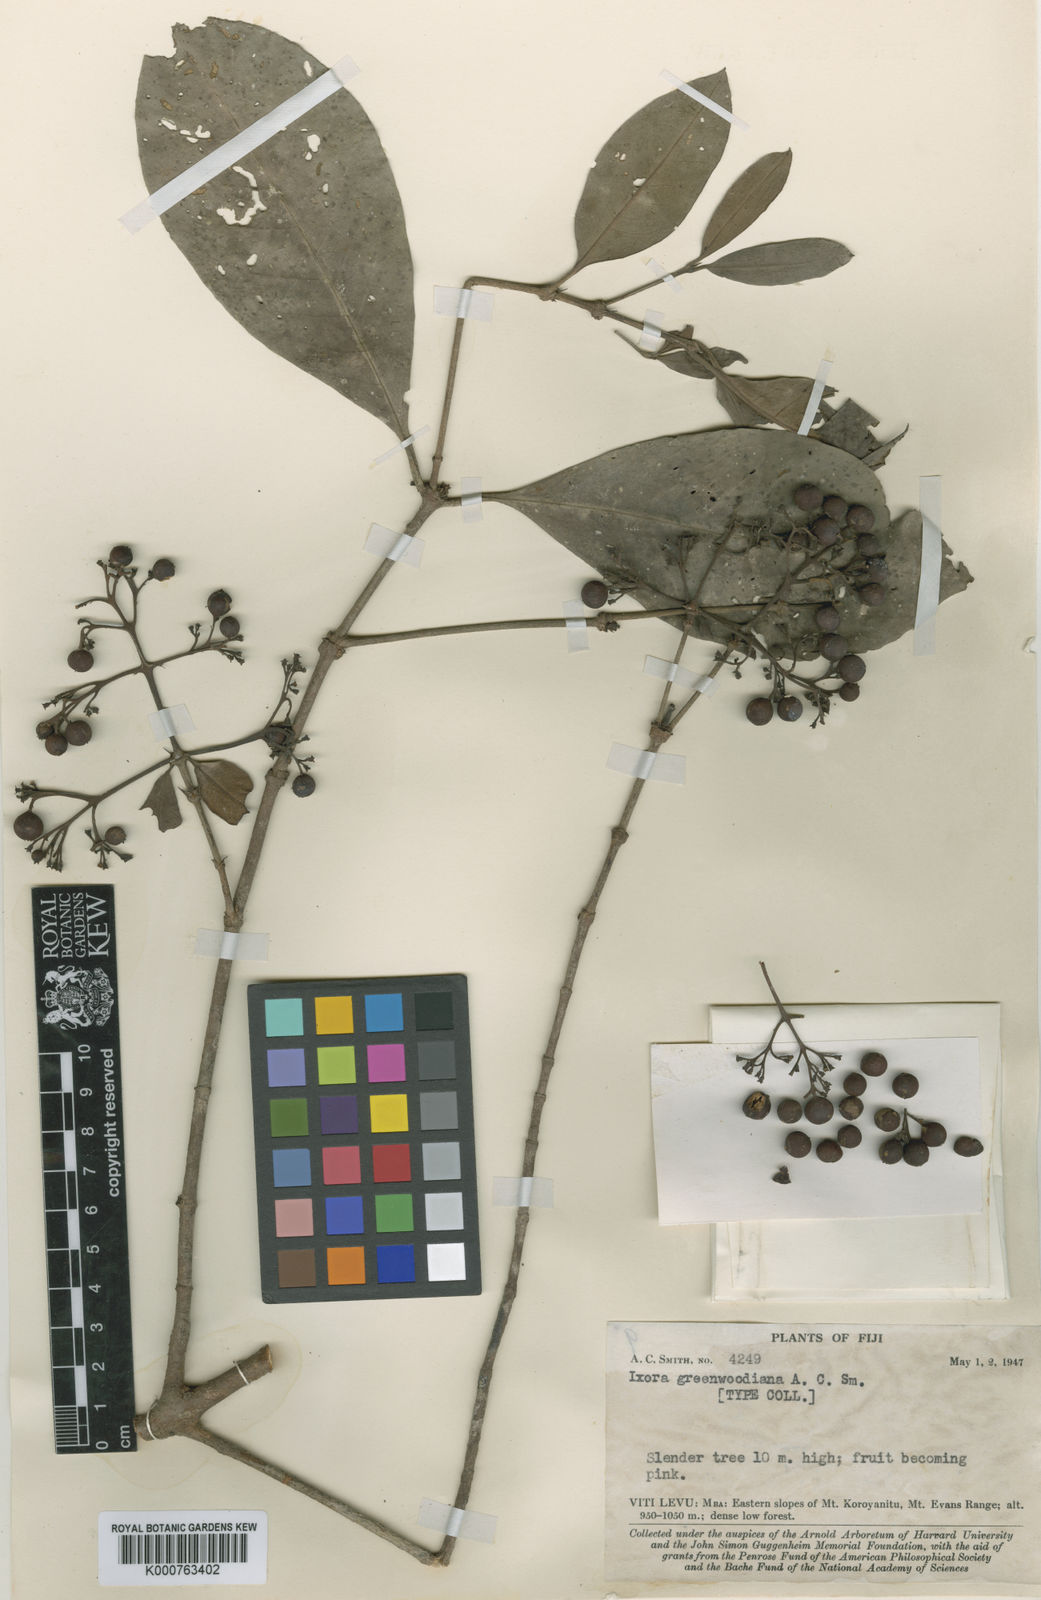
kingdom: Plantae
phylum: Tracheophyta
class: Magnoliopsida
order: Gentianales
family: Rubiaceae
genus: Ixora
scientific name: Ixora greenwoodiana
